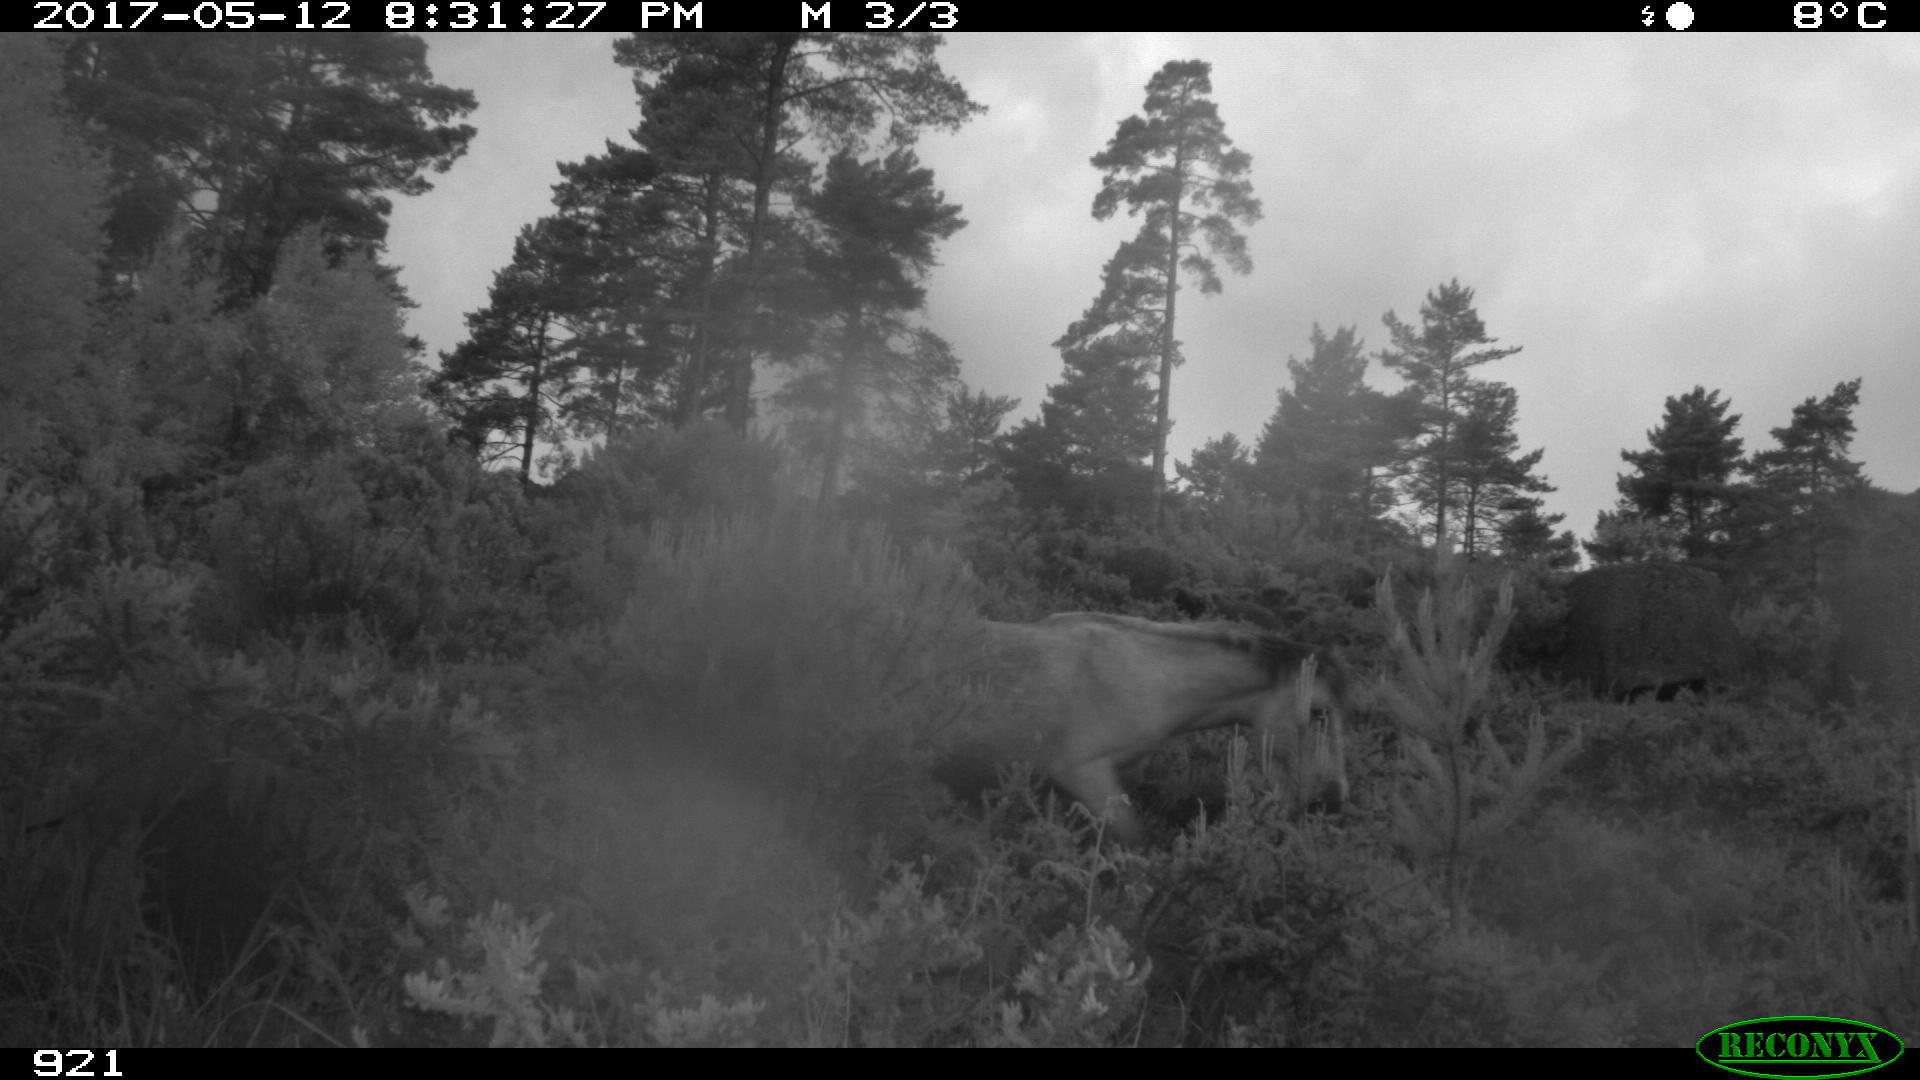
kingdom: Animalia
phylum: Chordata
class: Mammalia
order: Perissodactyla
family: Equidae
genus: Equus
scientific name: Equus caballus
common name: Horse
